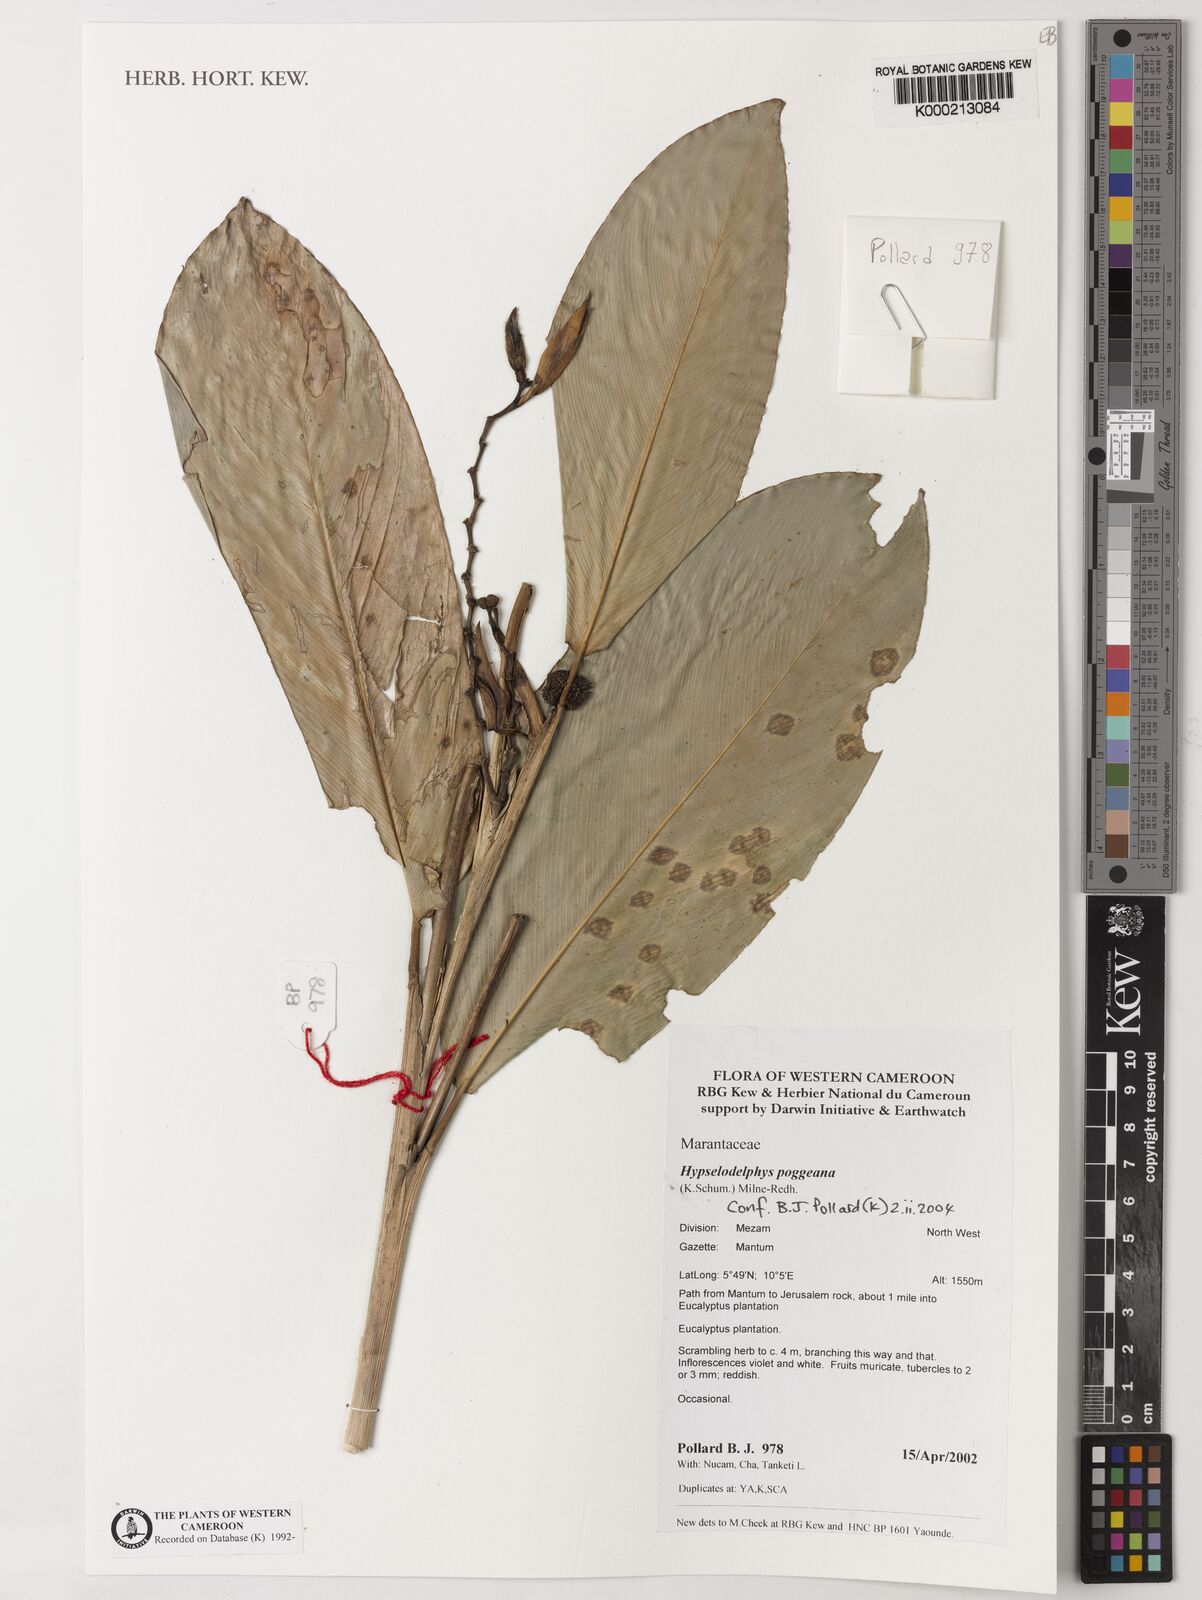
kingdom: Plantae
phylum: Tracheophyta
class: Liliopsida
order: Zingiberales
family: Marantaceae
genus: Hypselodelphys
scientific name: Hypselodelphys poggeana
